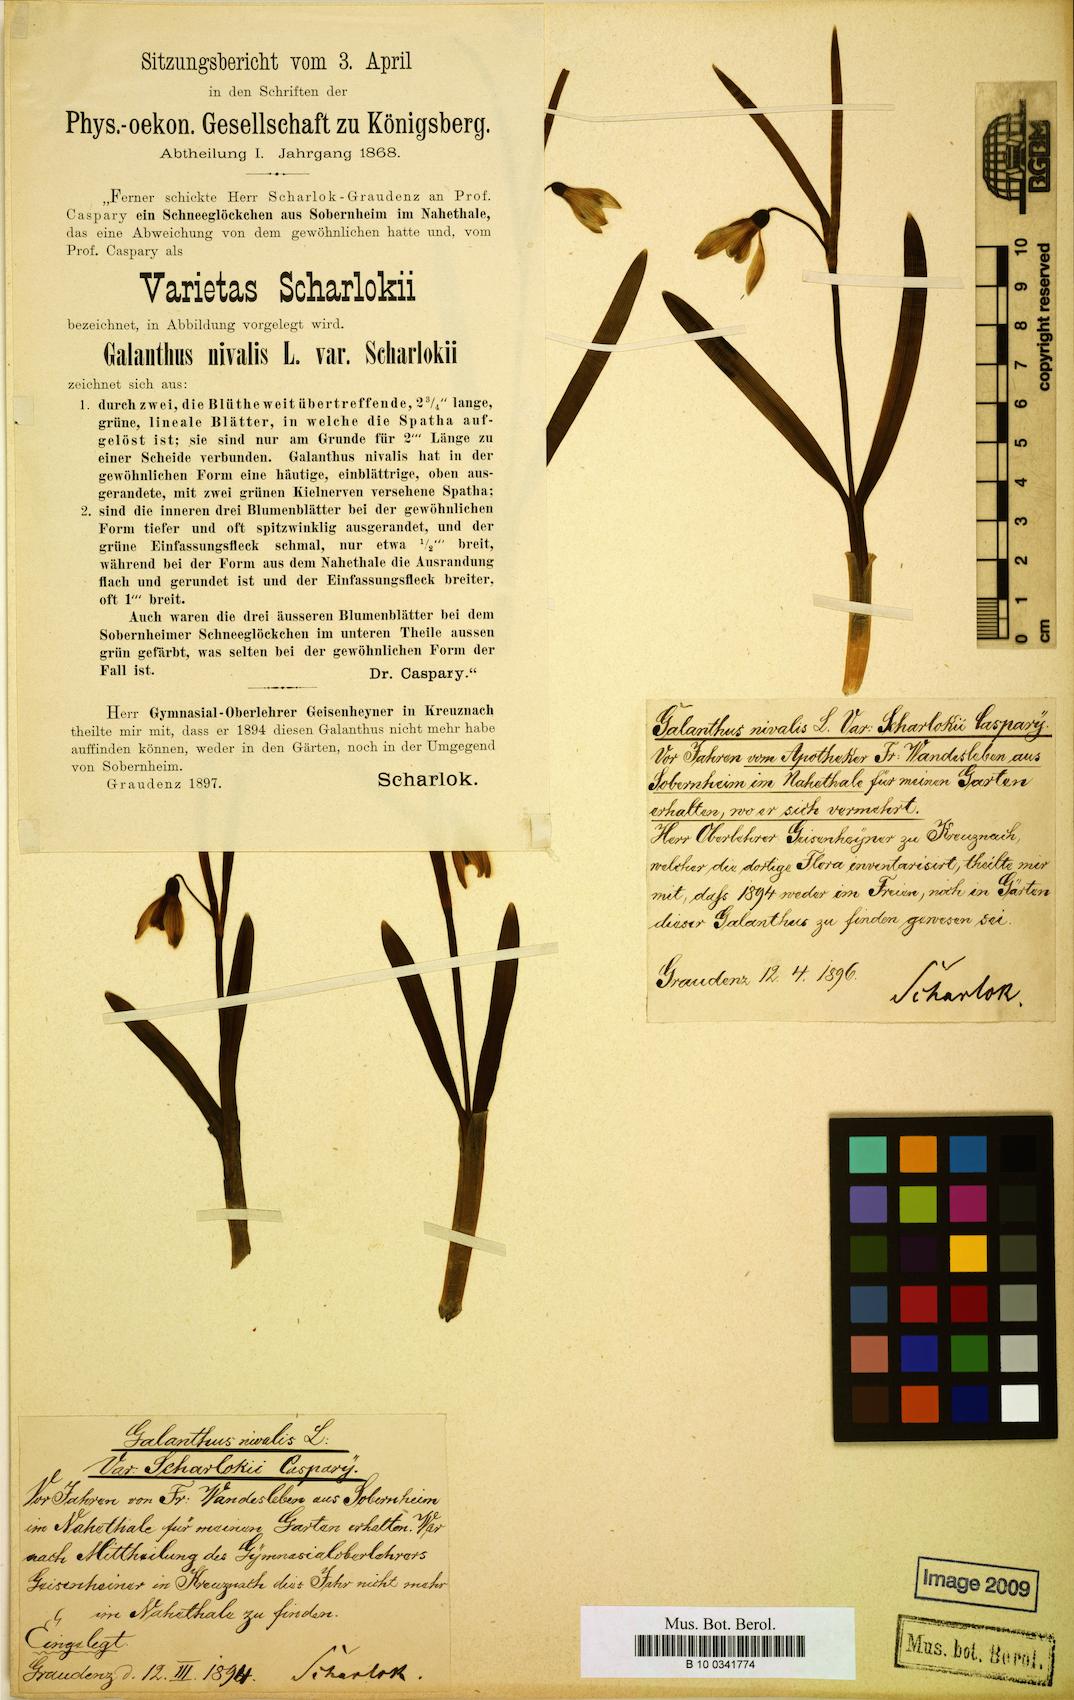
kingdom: Plantae
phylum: Tracheophyta
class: Liliopsida
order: Asparagales
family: Amaryllidaceae
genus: Galanthus
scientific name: Galanthus nivalis
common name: Snowdrop
